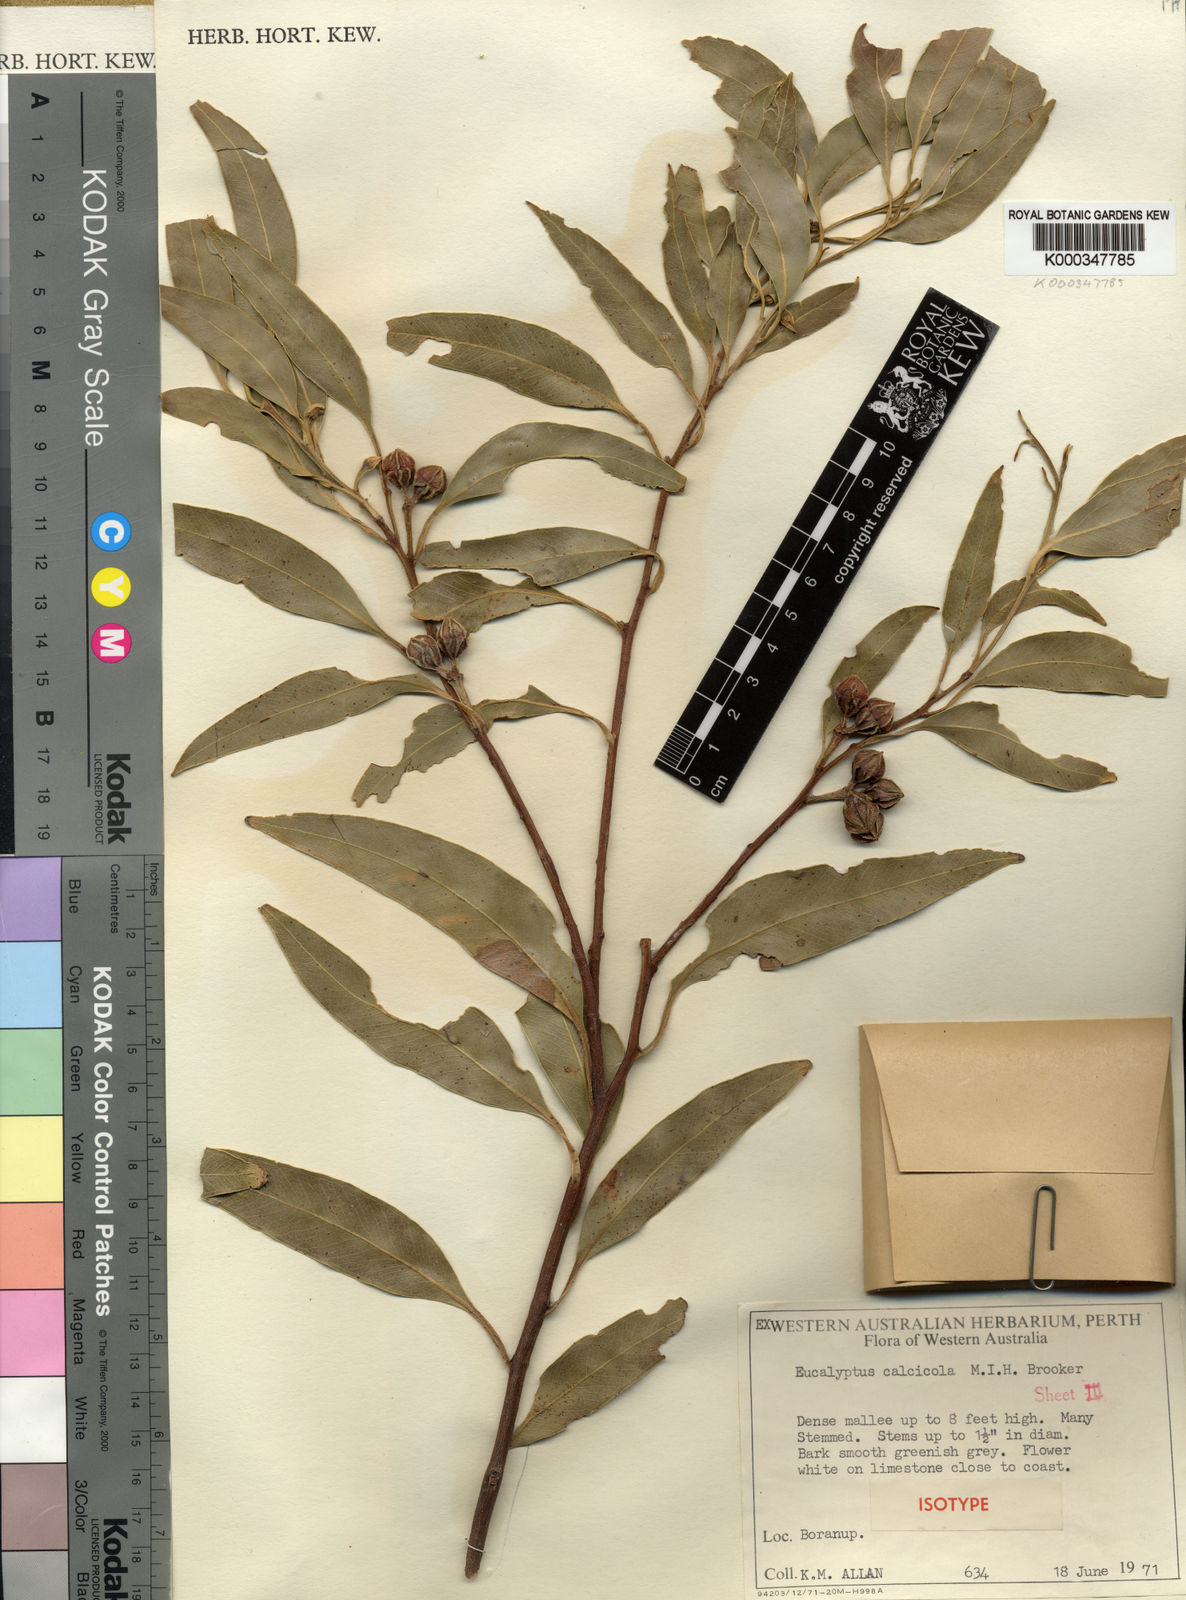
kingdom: Plantae
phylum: Tracheophyta
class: Magnoliopsida
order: Myrtales
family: Myrtaceae
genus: Eucalyptus
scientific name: Eucalyptus calcicola
